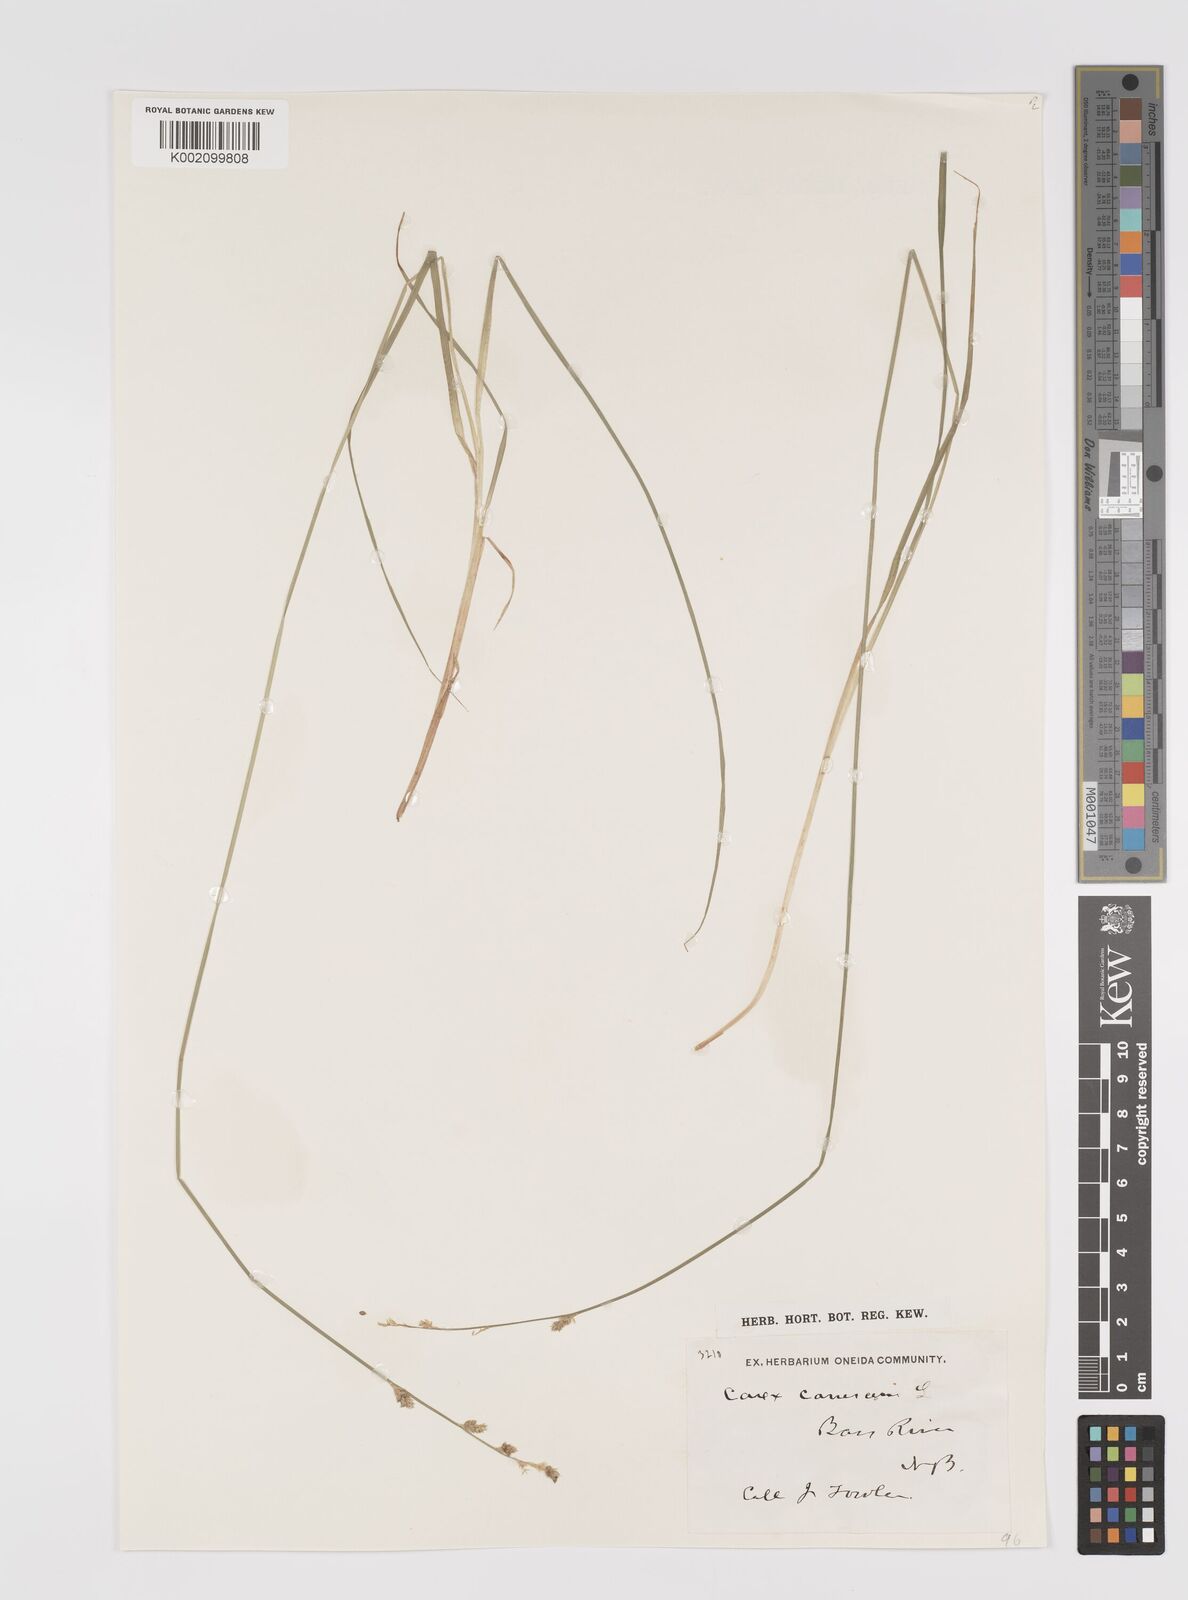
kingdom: Plantae
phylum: Tracheophyta
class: Liliopsida
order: Poales
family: Cyperaceae
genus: Carex
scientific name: Carex curta
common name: White sedge
